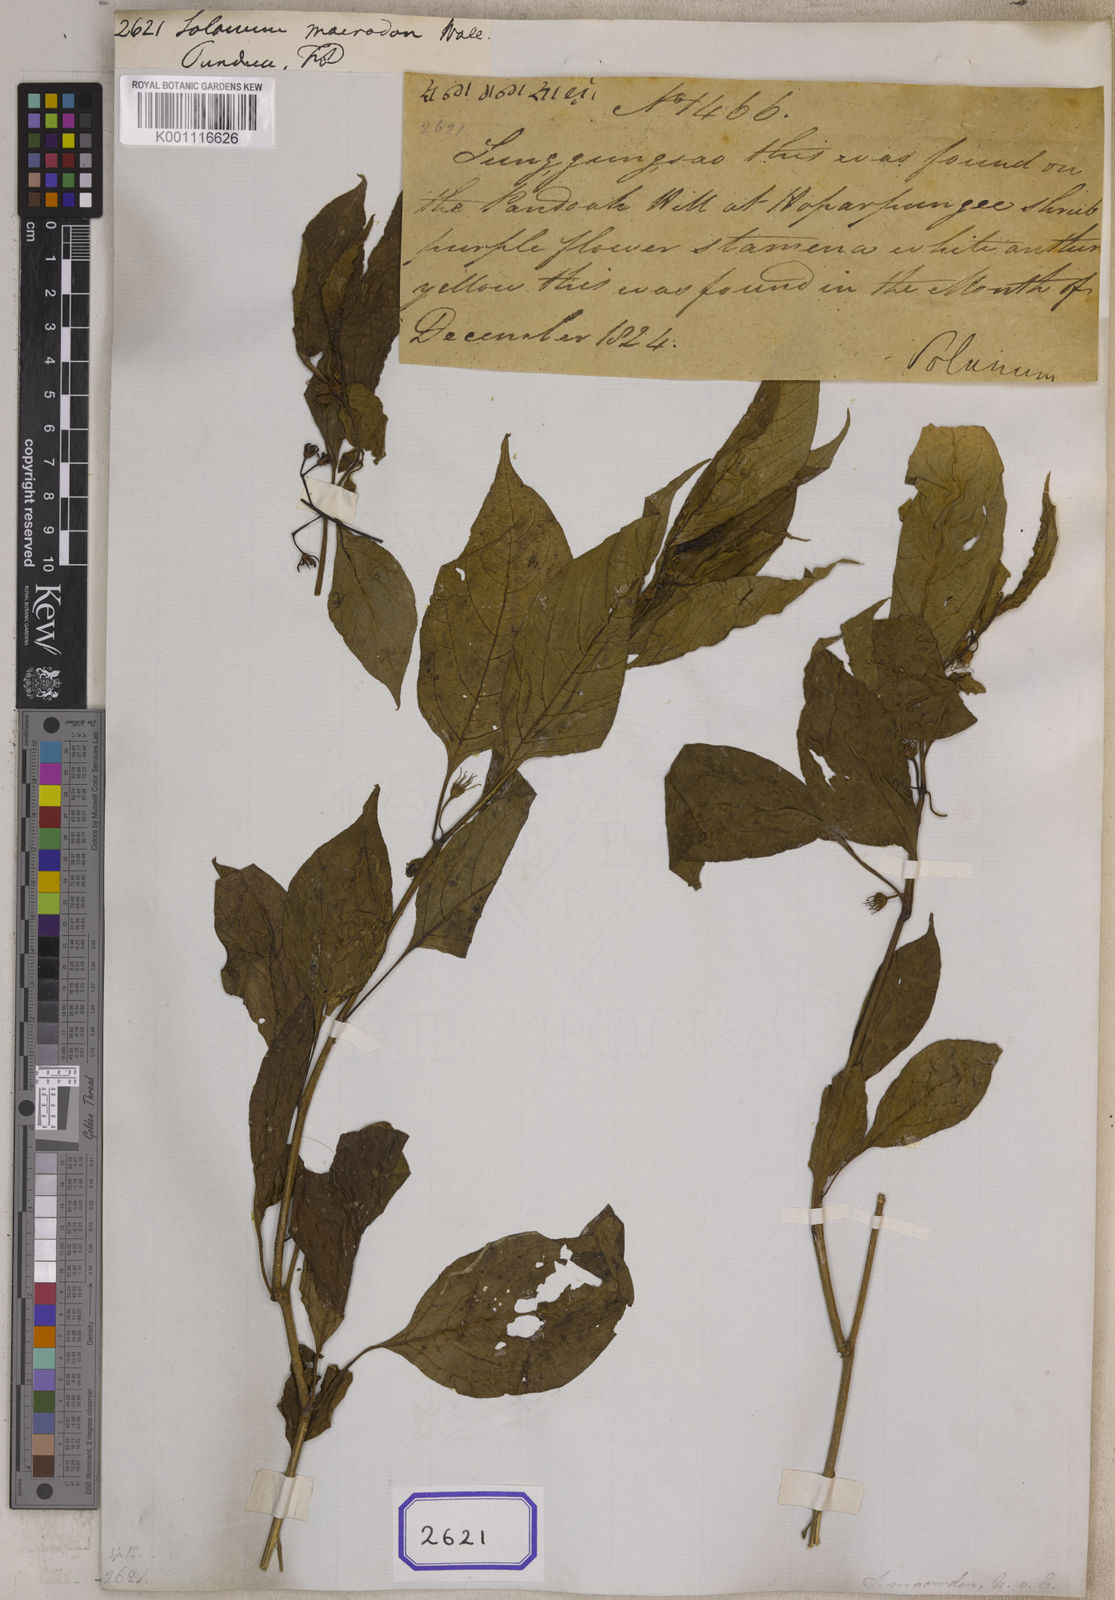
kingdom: Plantae
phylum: Tracheophyta
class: Magnoliopsida
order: Solanales
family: Solanaceae
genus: Solanum
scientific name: Solanum
